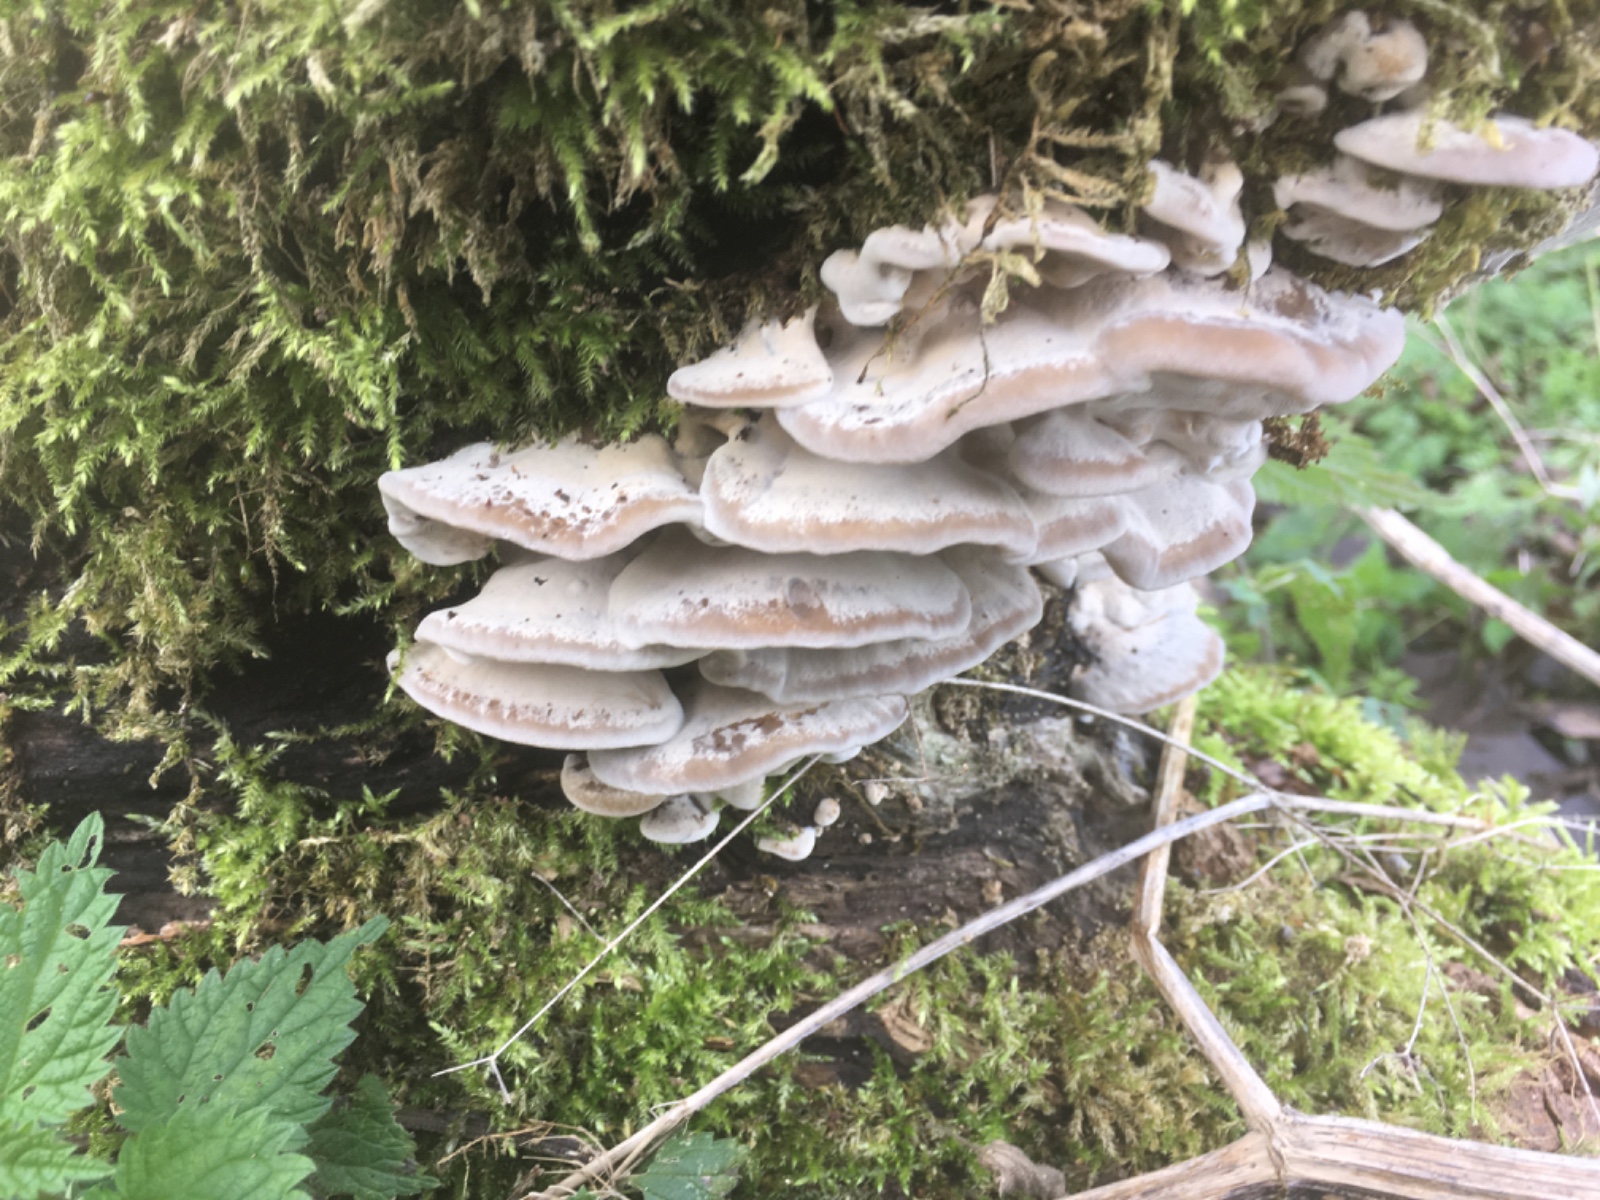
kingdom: Fungi
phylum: Basidiomycota
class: Agaricomycetes
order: Polyporales
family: Phanerochaetaceae
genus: Bjerkandera
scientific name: Bjerkandera fumosa
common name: grågul sodporesvamp
